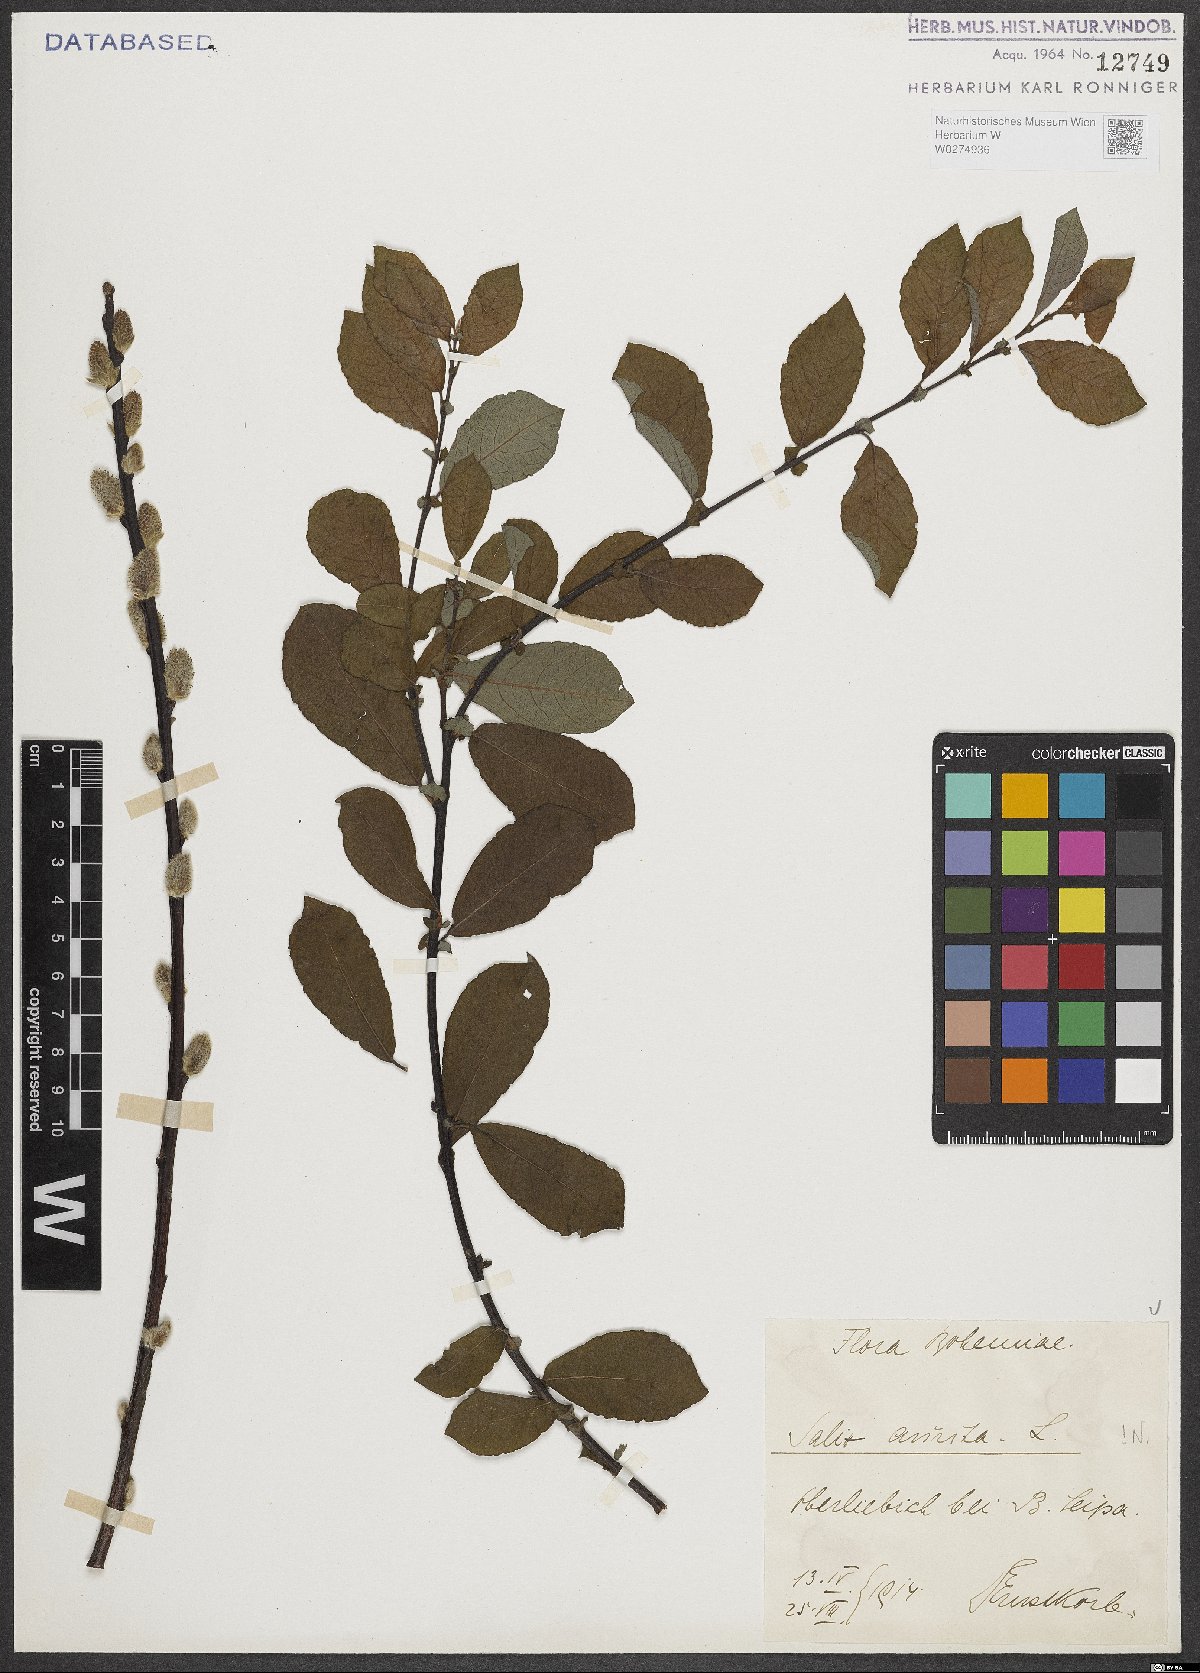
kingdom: Plantae
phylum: Tracheophyta
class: Magnoliopsida
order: Malpighiales
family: Salicaceae
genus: Salix
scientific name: Salix aurita
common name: Eared willow
